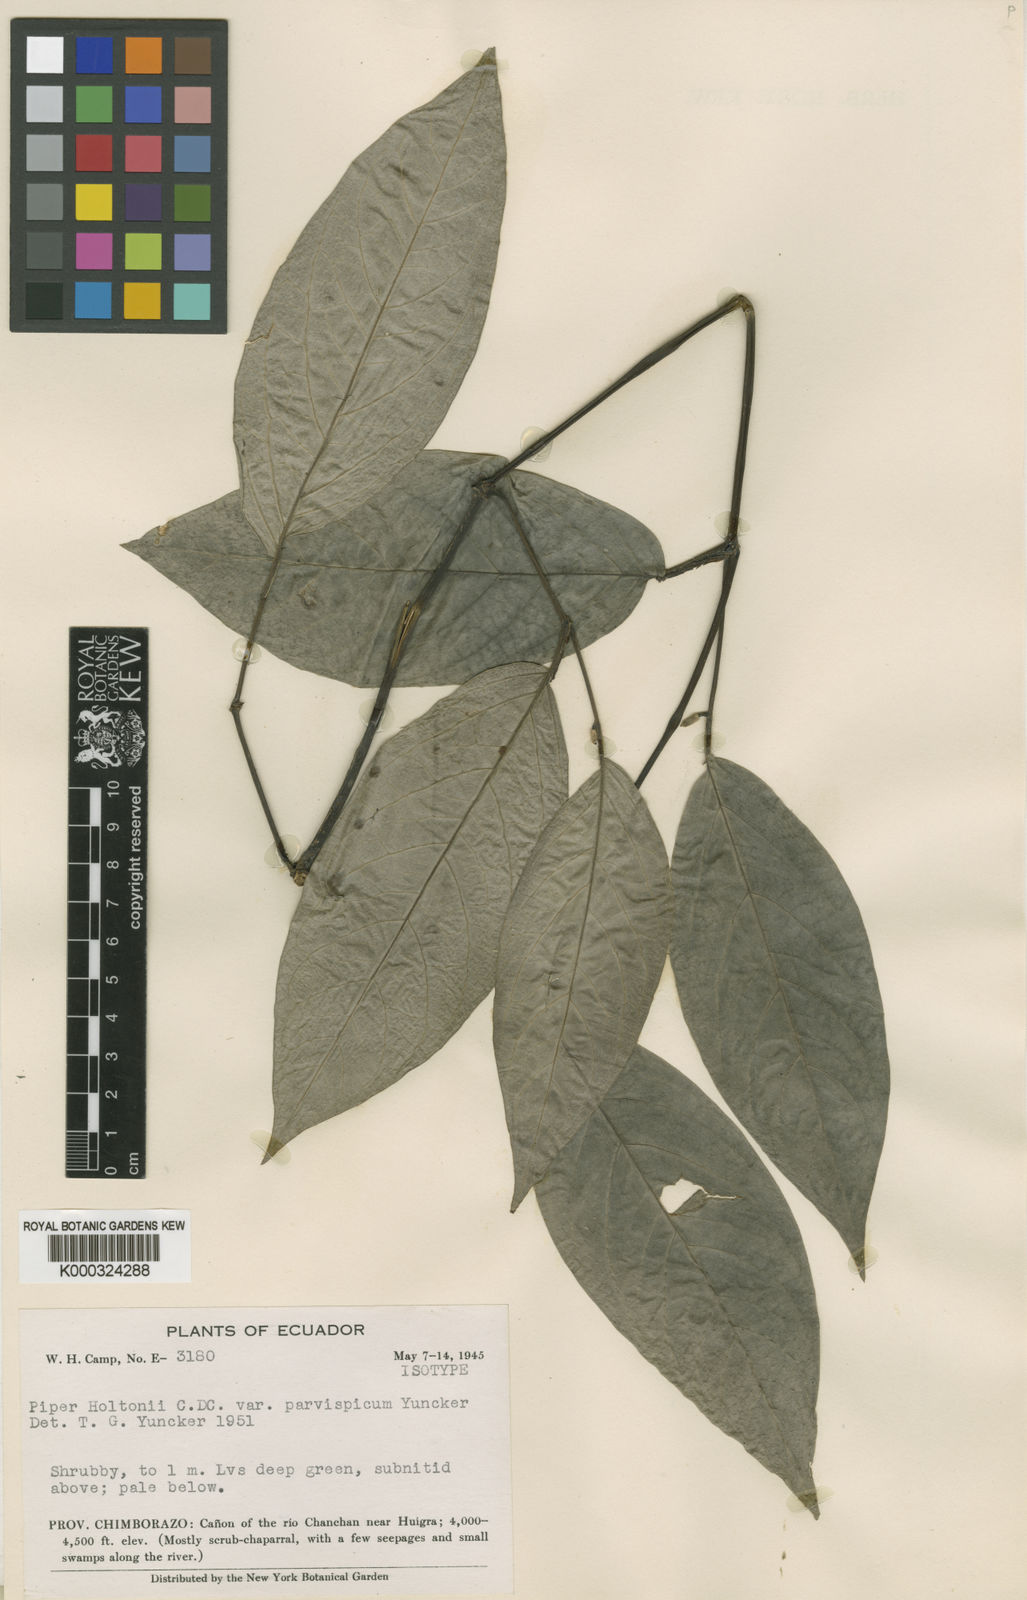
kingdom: Plantae
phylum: Tracheophyta
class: Magnoliopsida
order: Piperales
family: Piperaceae
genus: Piper
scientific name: Piper holtonii
